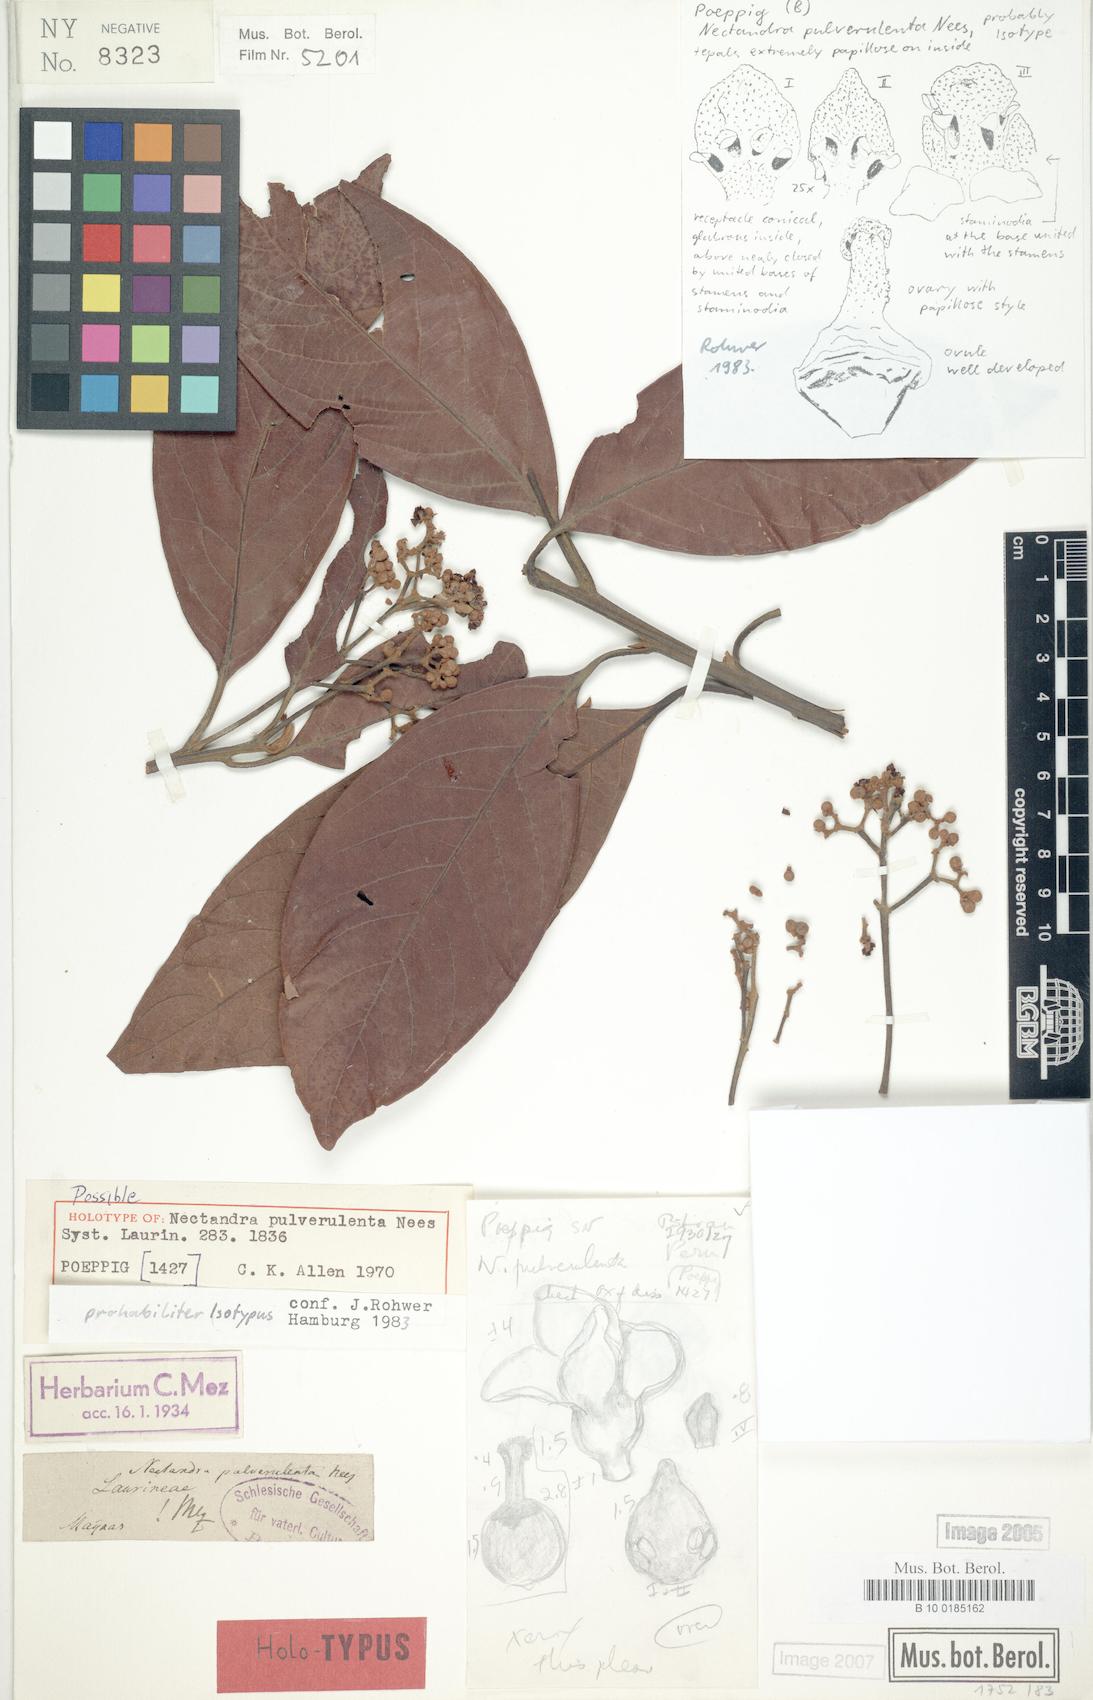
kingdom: Plantae
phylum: Tracheophyta
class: Magnoliopsida
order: Laurales
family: Lauraceae
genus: Nectandra
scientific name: Nectandra pulverulenta
